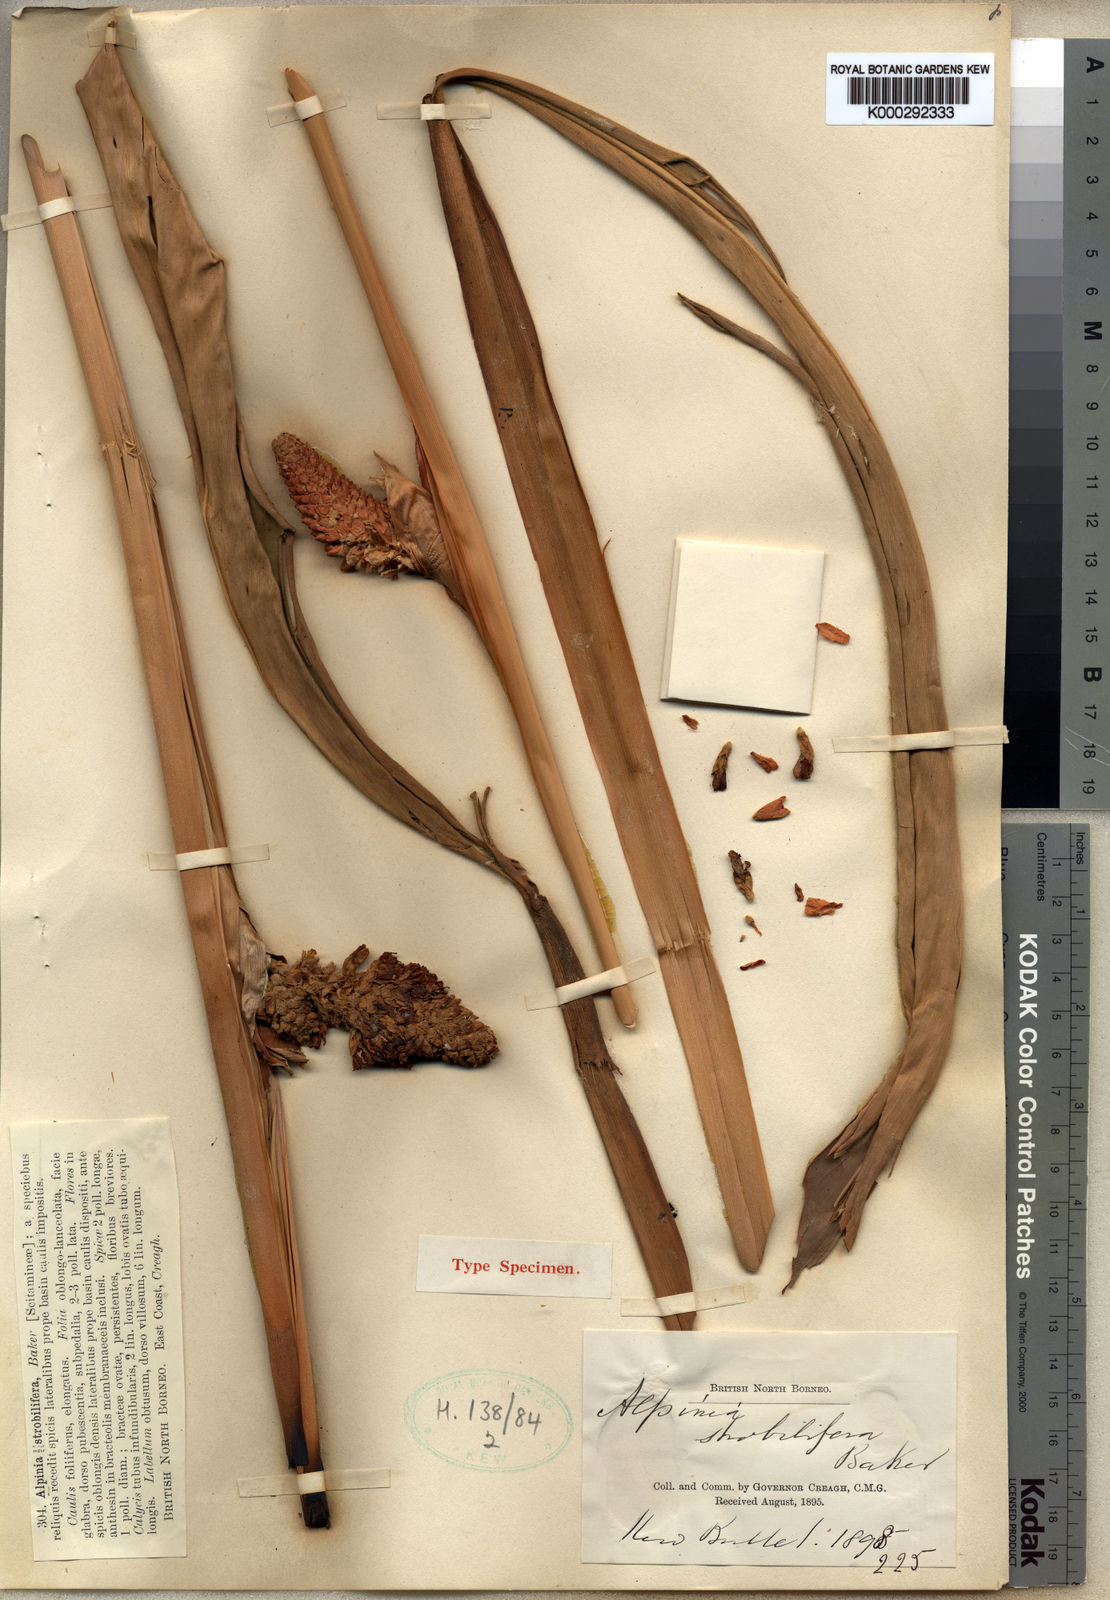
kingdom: Plantae
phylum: Tracheophyta
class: Liliopsida
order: Zingiberales
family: Zingiberaceae
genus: Plagiostachys
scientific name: Plagiostachys strobilifera
